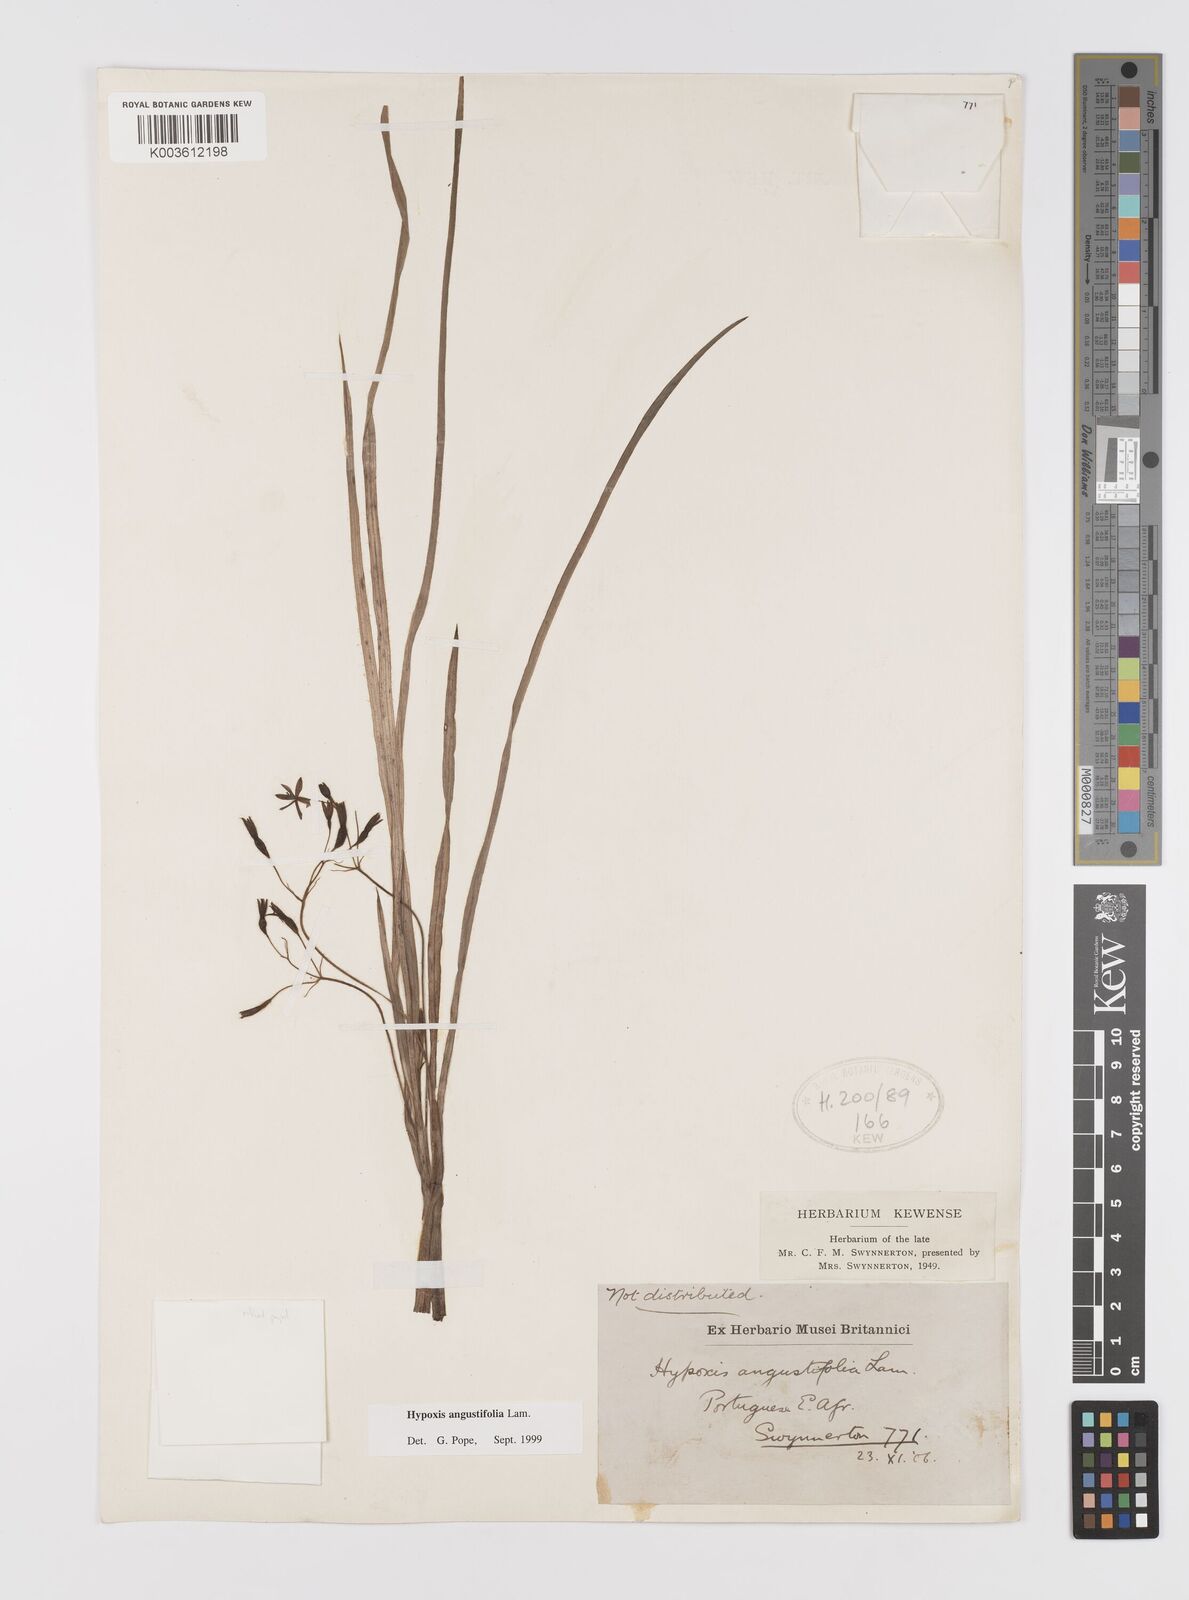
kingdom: Plantae
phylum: Tracheophyta
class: Liliopsida
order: Asparagales
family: Hypoxidaceae
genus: Hypoxis
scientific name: Hypoxis angustifolia
